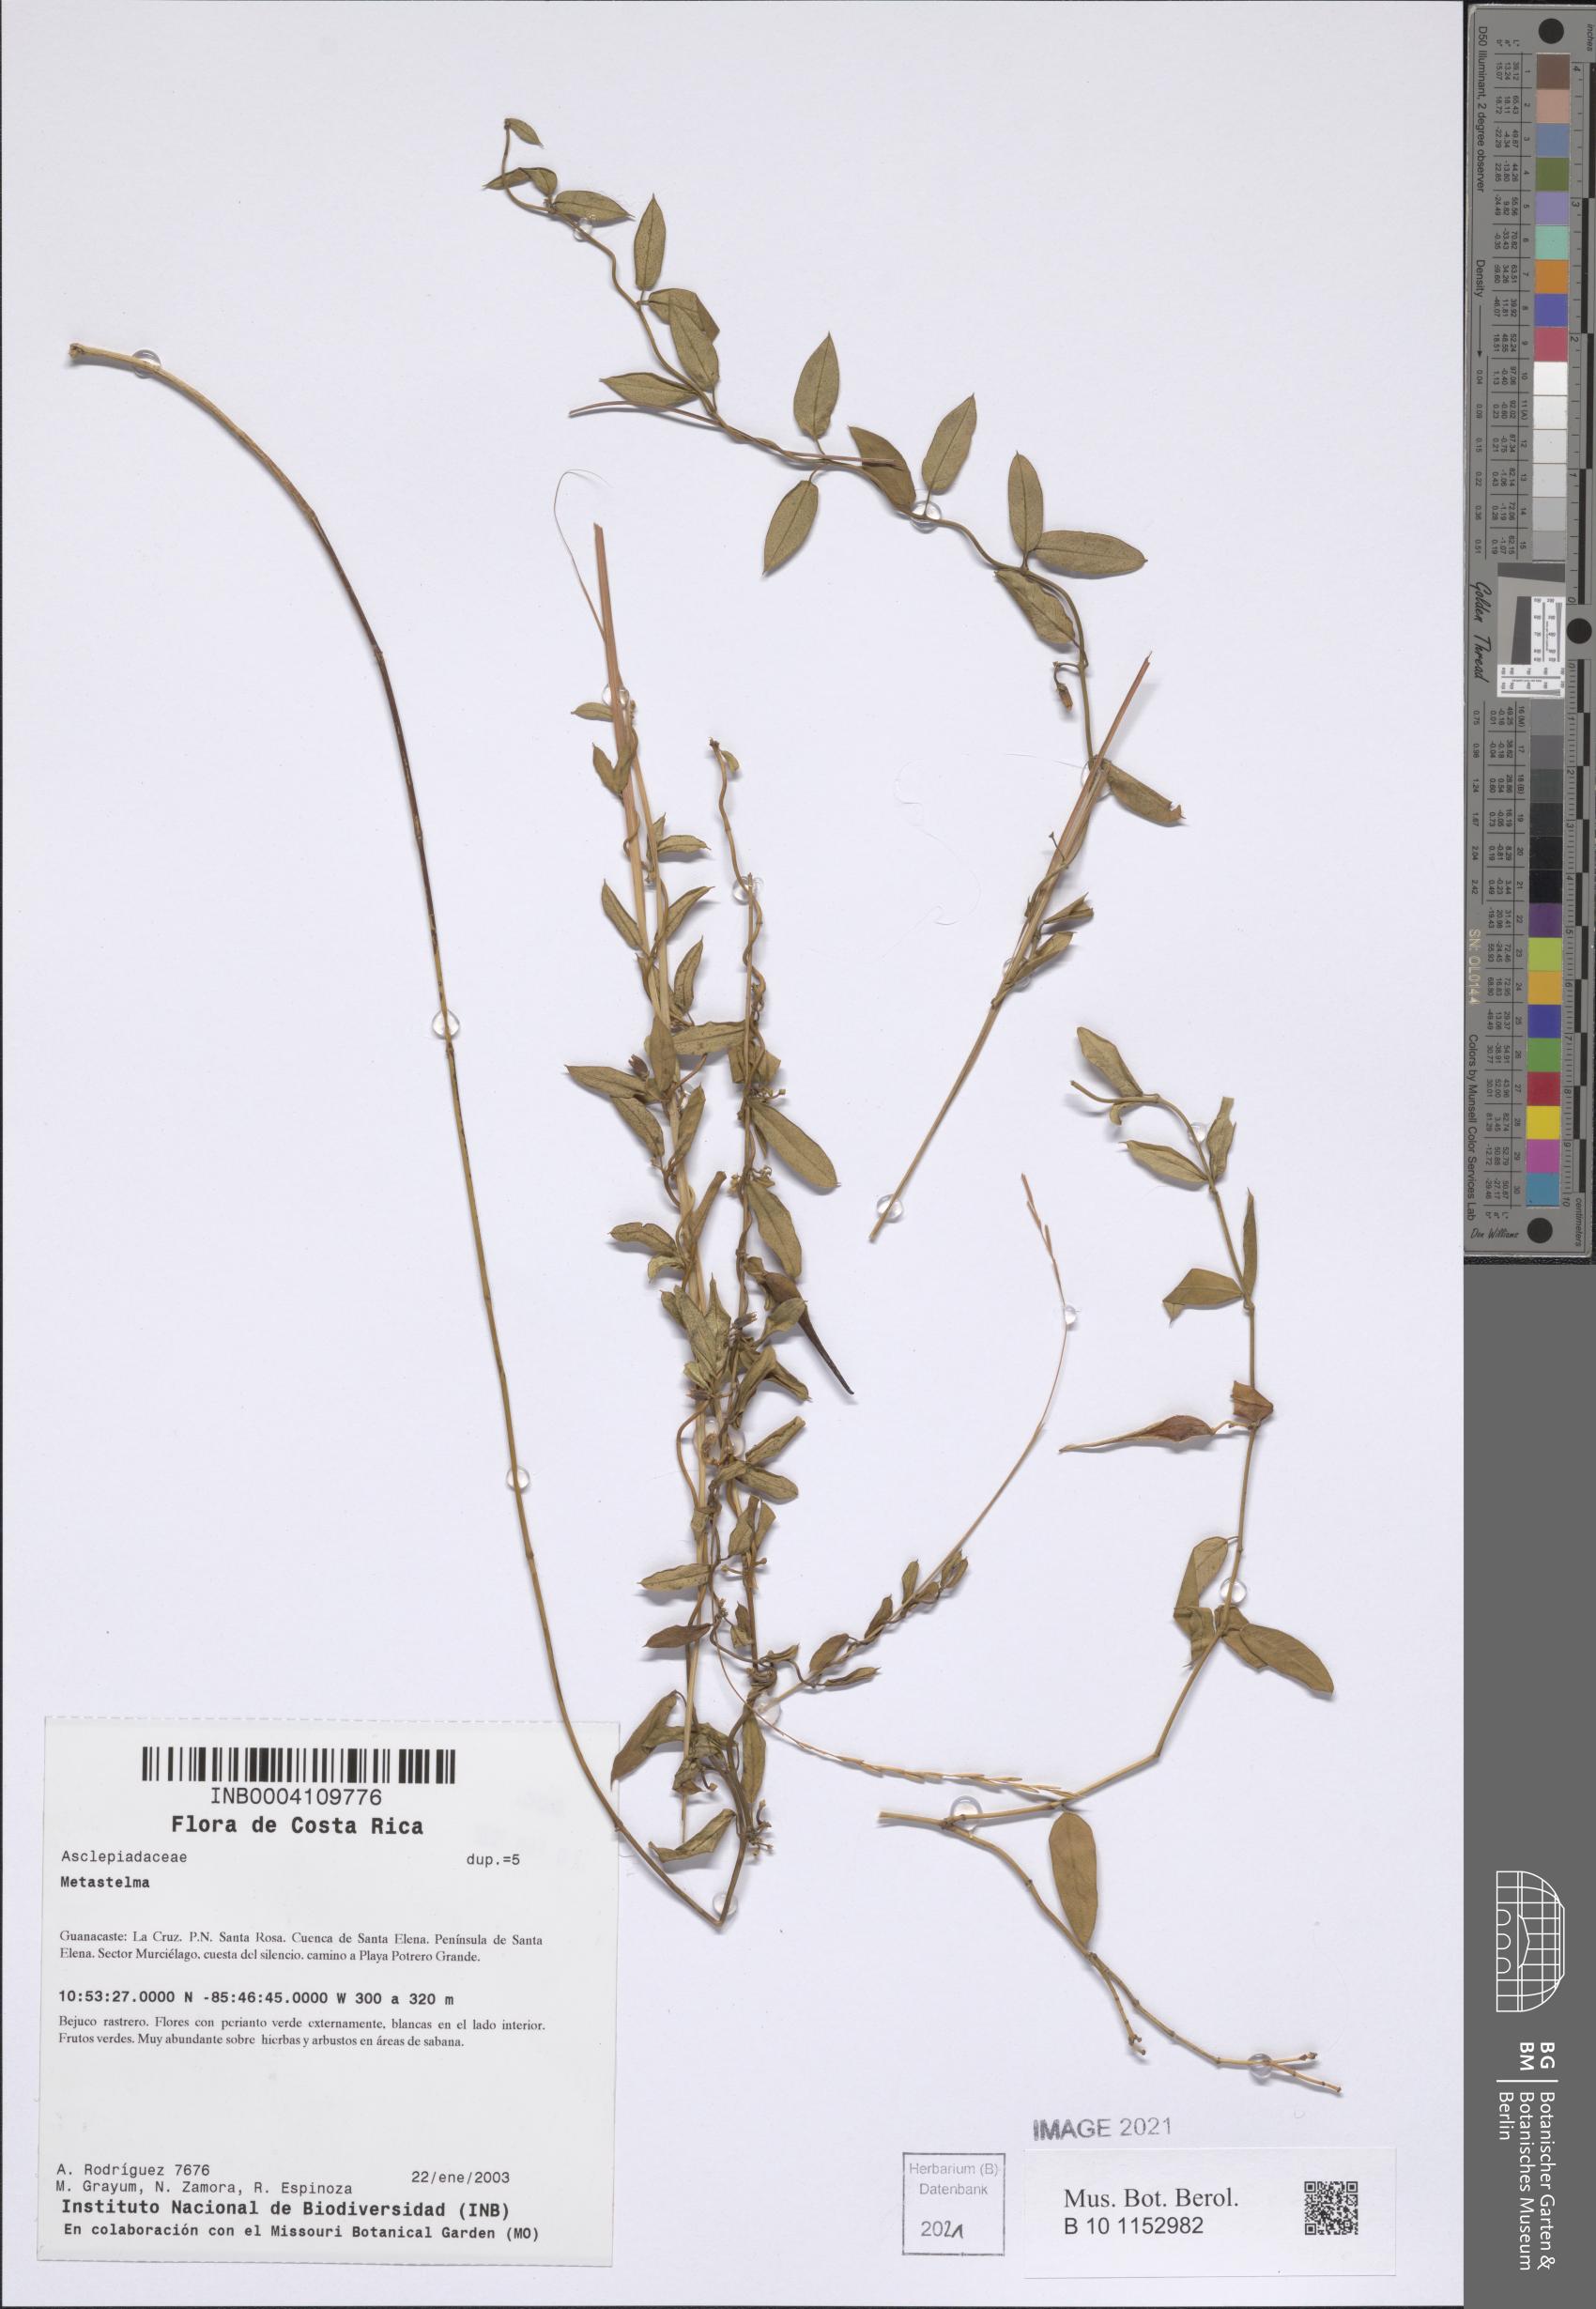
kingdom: Plantae
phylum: Tracheophyta
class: Magnoliopsida
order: Gentianales
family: Apocynaceae
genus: Metastelma
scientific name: Metastelma barbigerum
